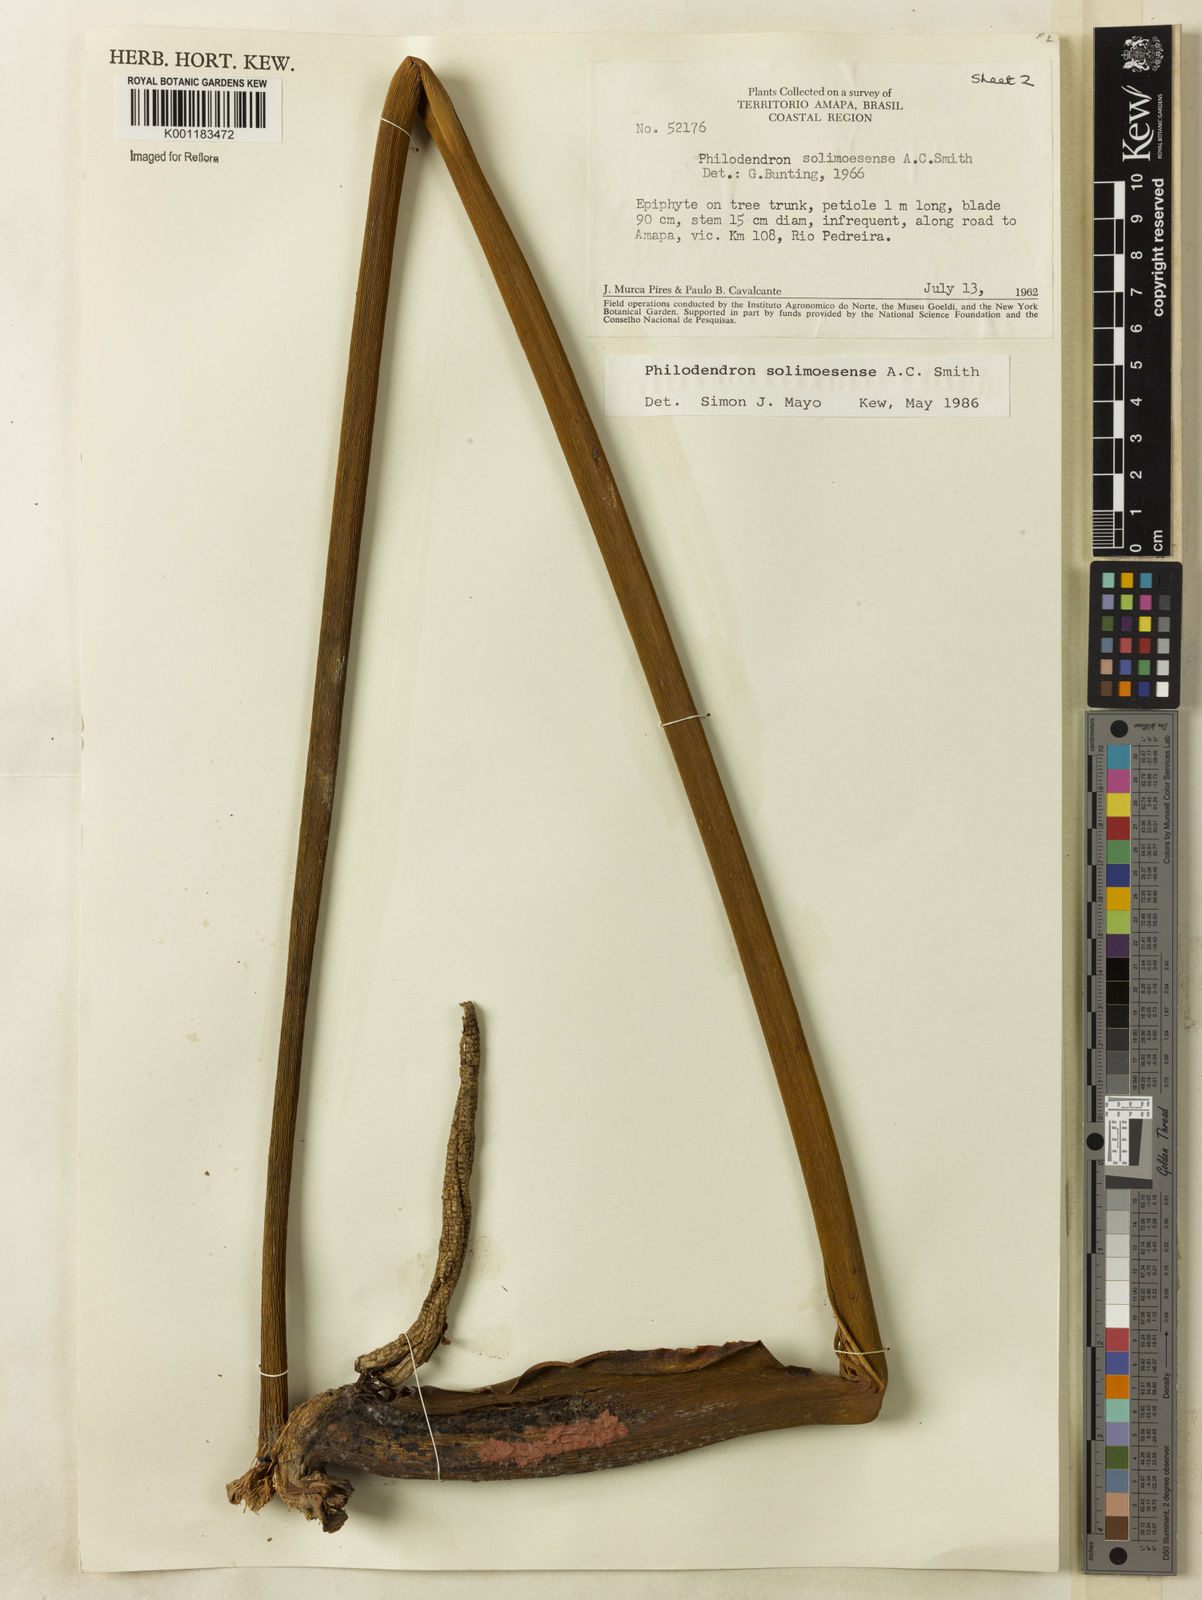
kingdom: Plantae
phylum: Tracheophyta
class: Liliopsida
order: Alismatales
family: Araceae
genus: Thaumatophyllum
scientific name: Thaumatophyllum solimoesense
